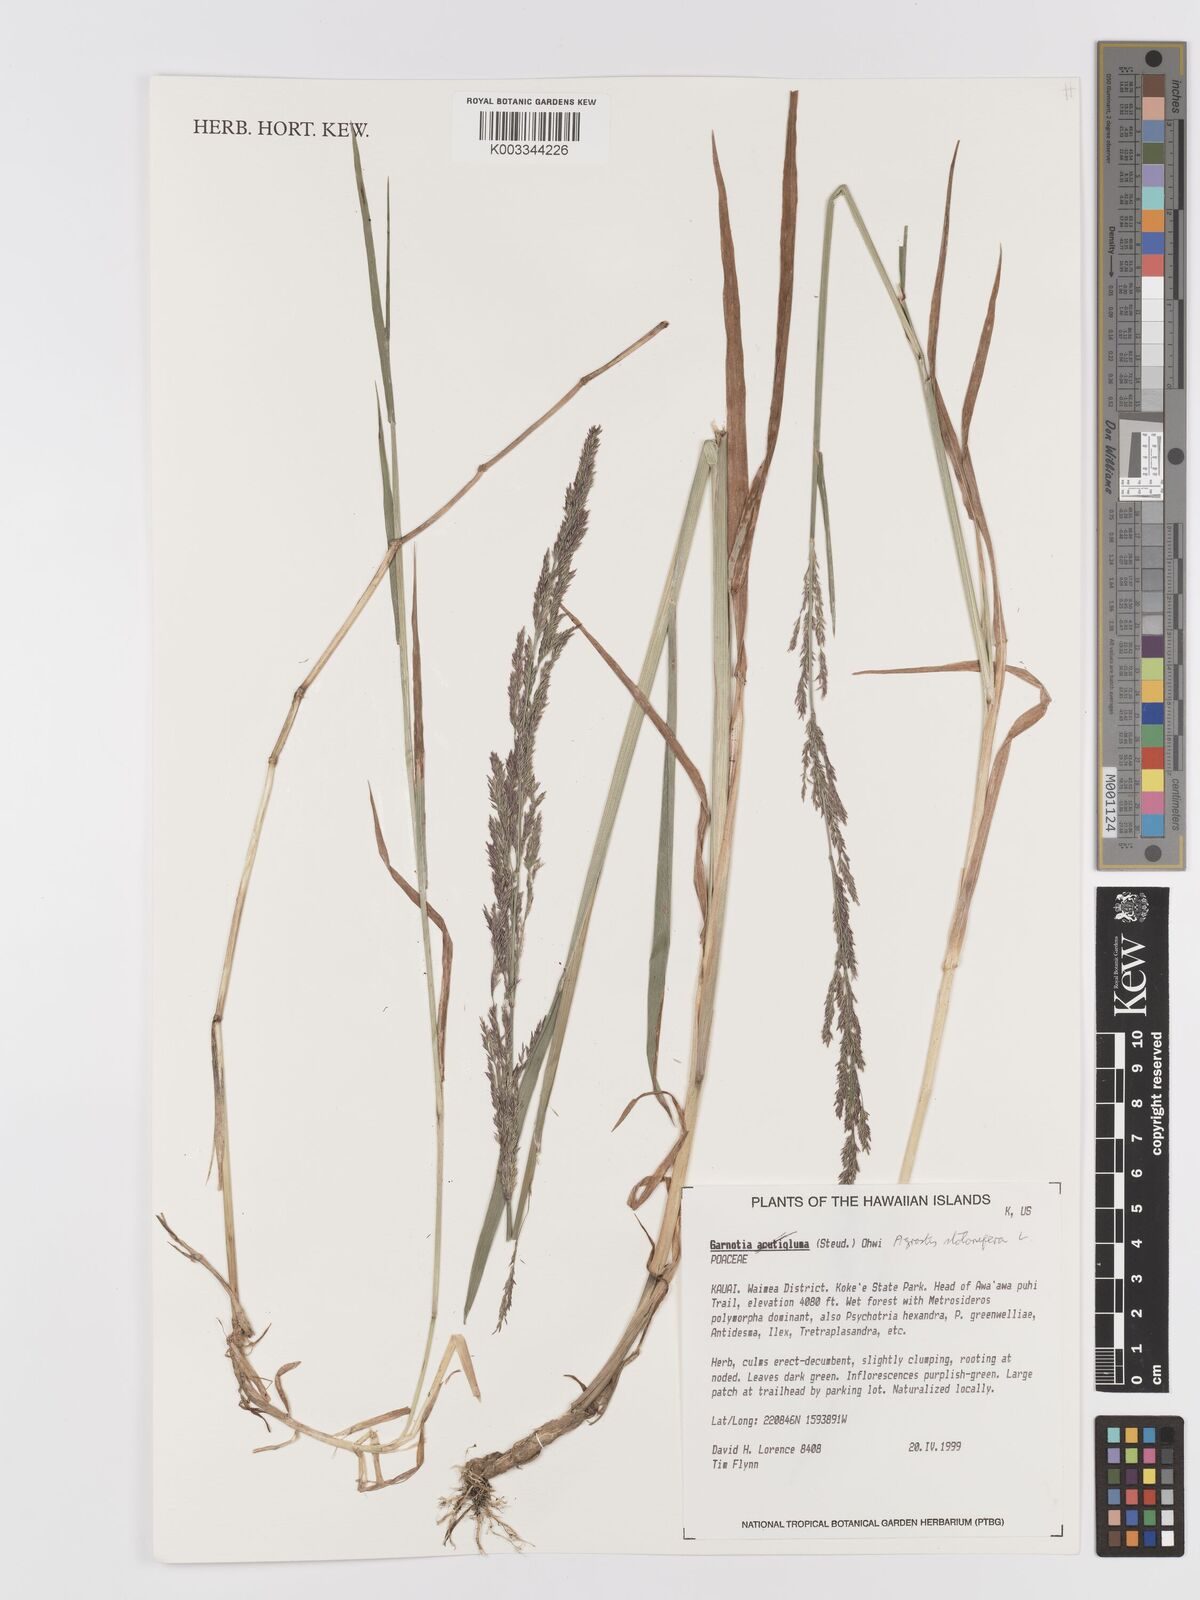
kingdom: Plantae
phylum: Tracheophyta
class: Liliopsida
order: Poales
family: Poaceae
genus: Agrostis
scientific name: Agrostis stolonifera
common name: Creeping bentgrass
